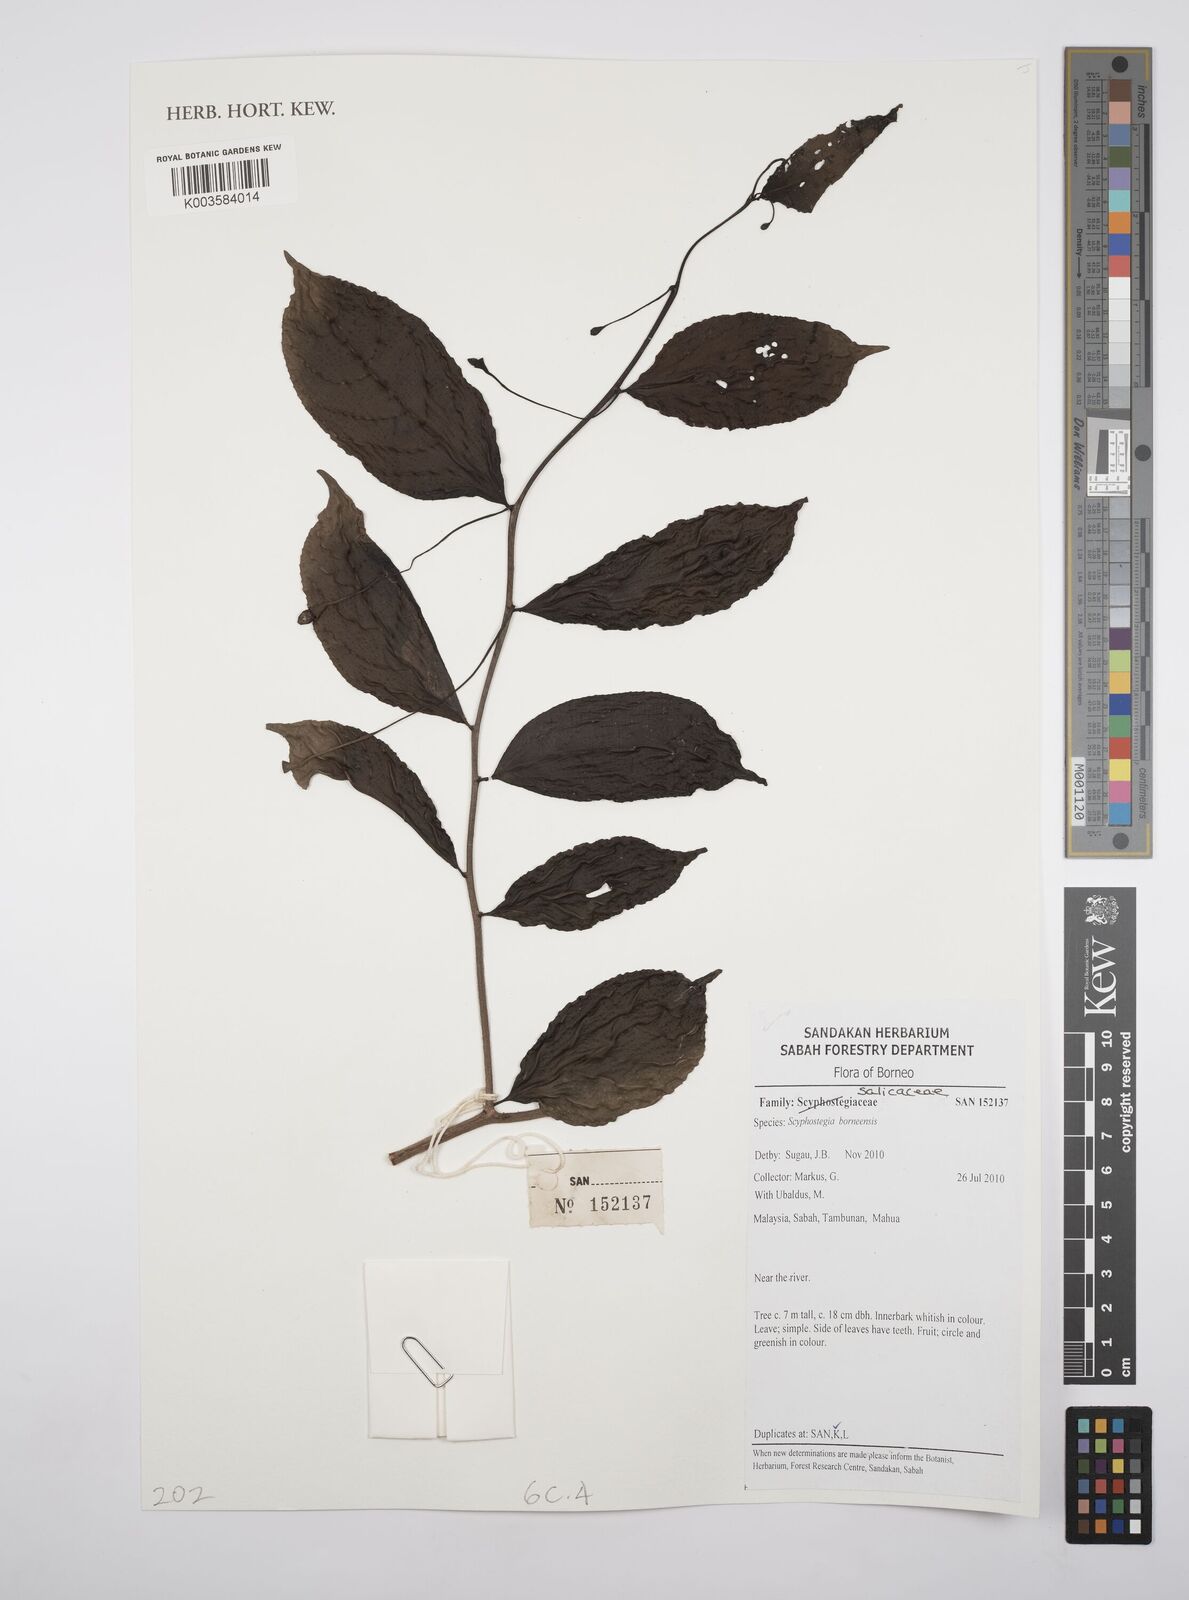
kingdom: Plantae
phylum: Tracheophyta
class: Magnoliopsida
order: Malpighiales
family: Salicaceae
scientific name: Salicaceae
